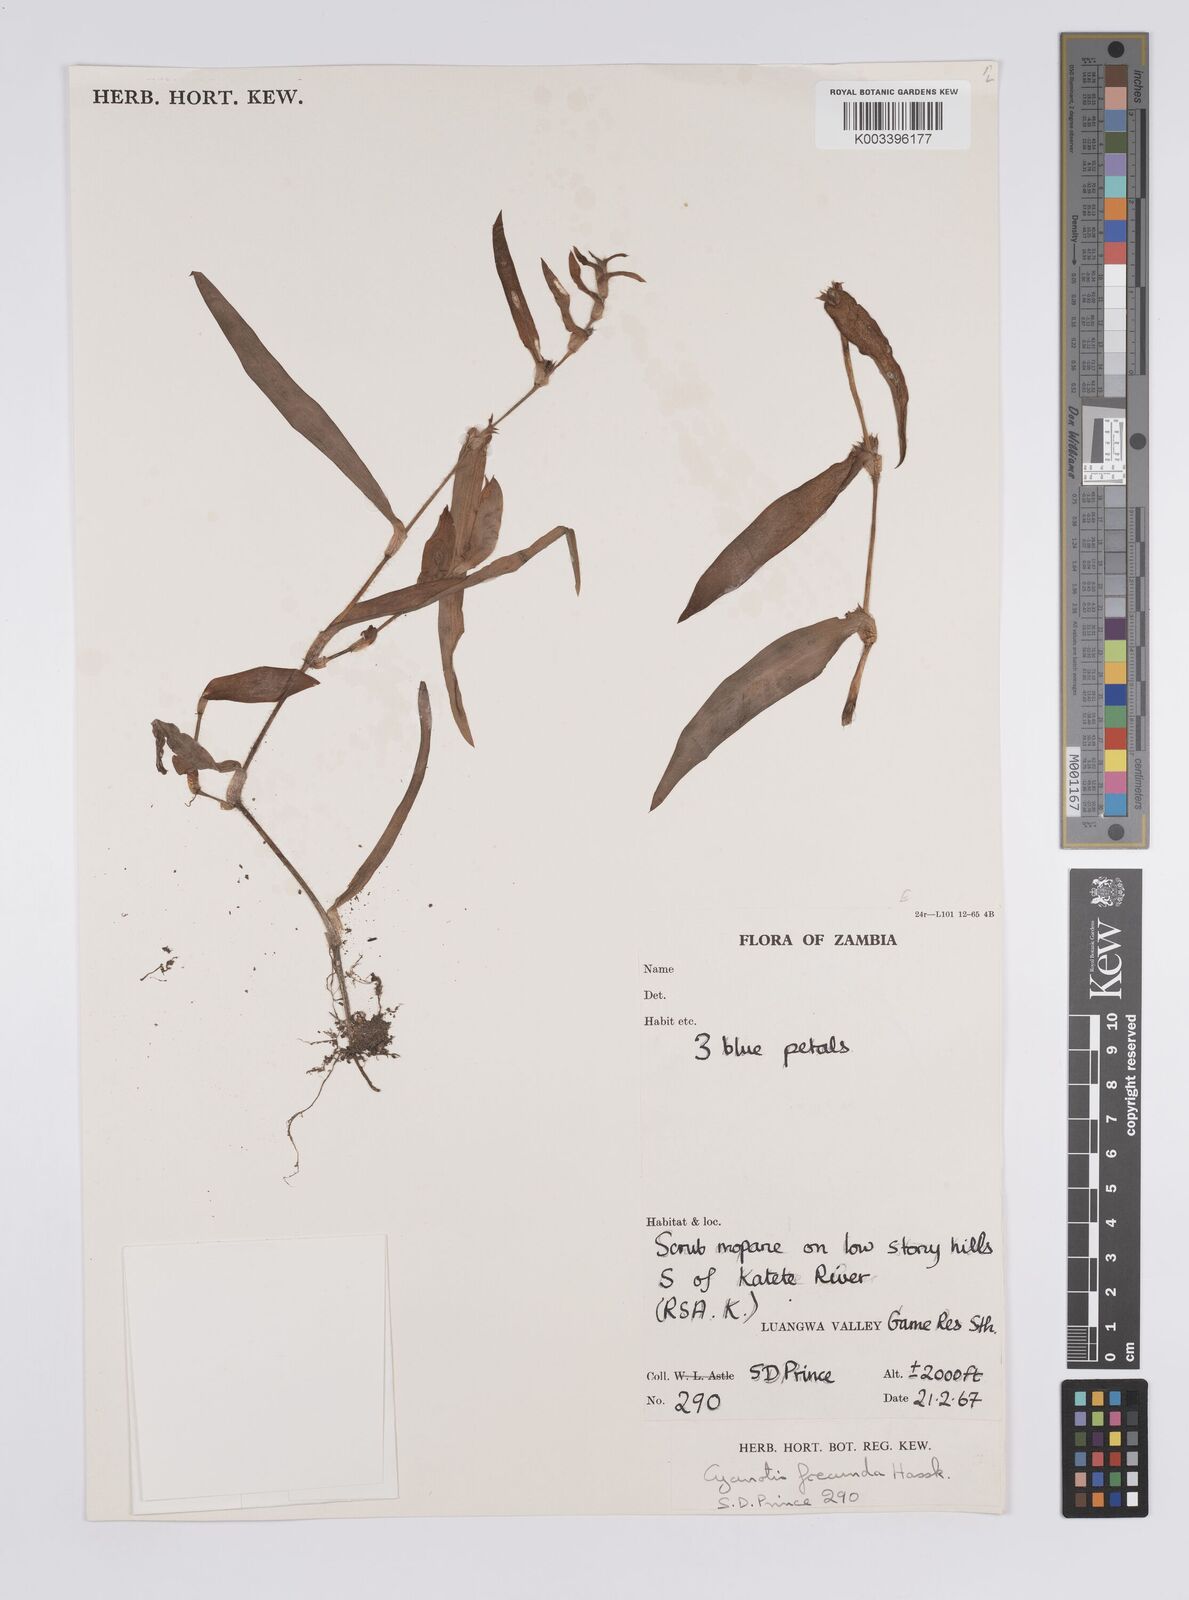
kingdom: Plantae
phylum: Tracheophyta
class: Liliopsida
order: Commelinales
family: Commelinaceae
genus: Cyanotis
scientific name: Cyanotis foecunda
